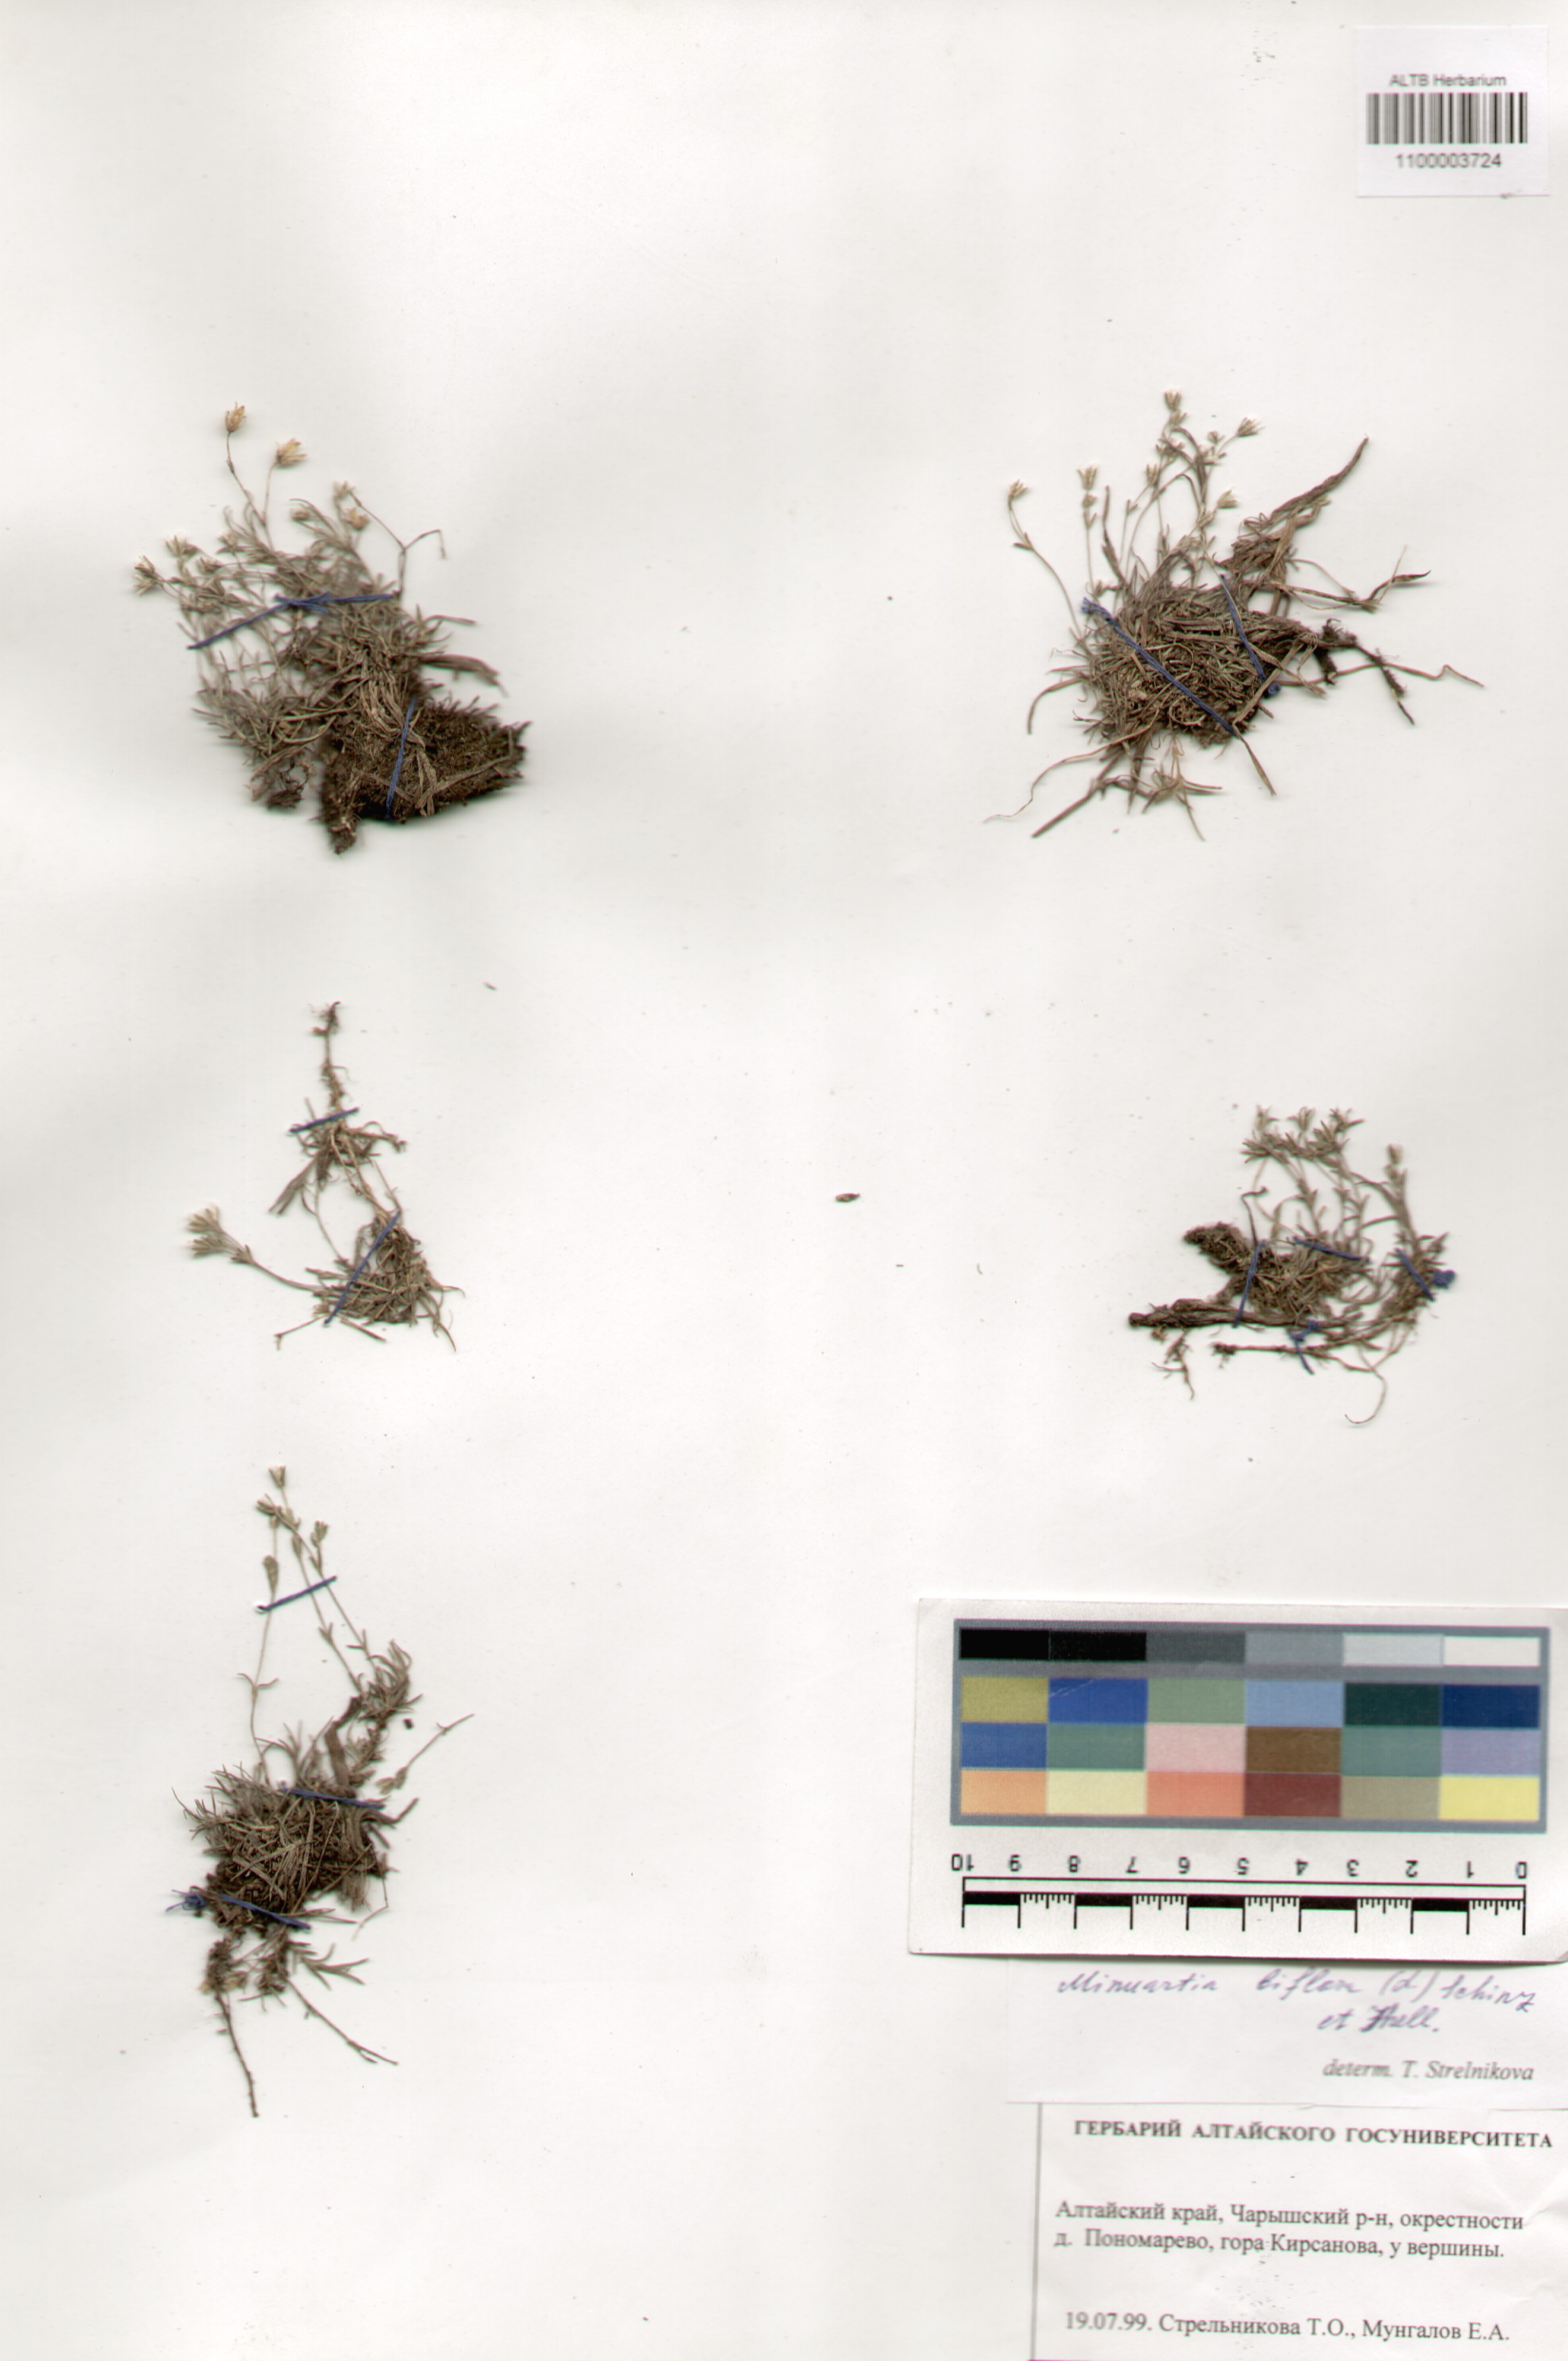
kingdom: Plantae
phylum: Tracheophyta
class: Magnoliopsida
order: Caryophyllales
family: Caryophyllaceae
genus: Cherleria
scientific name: Cherleria biflora
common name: Mountain sandwort
